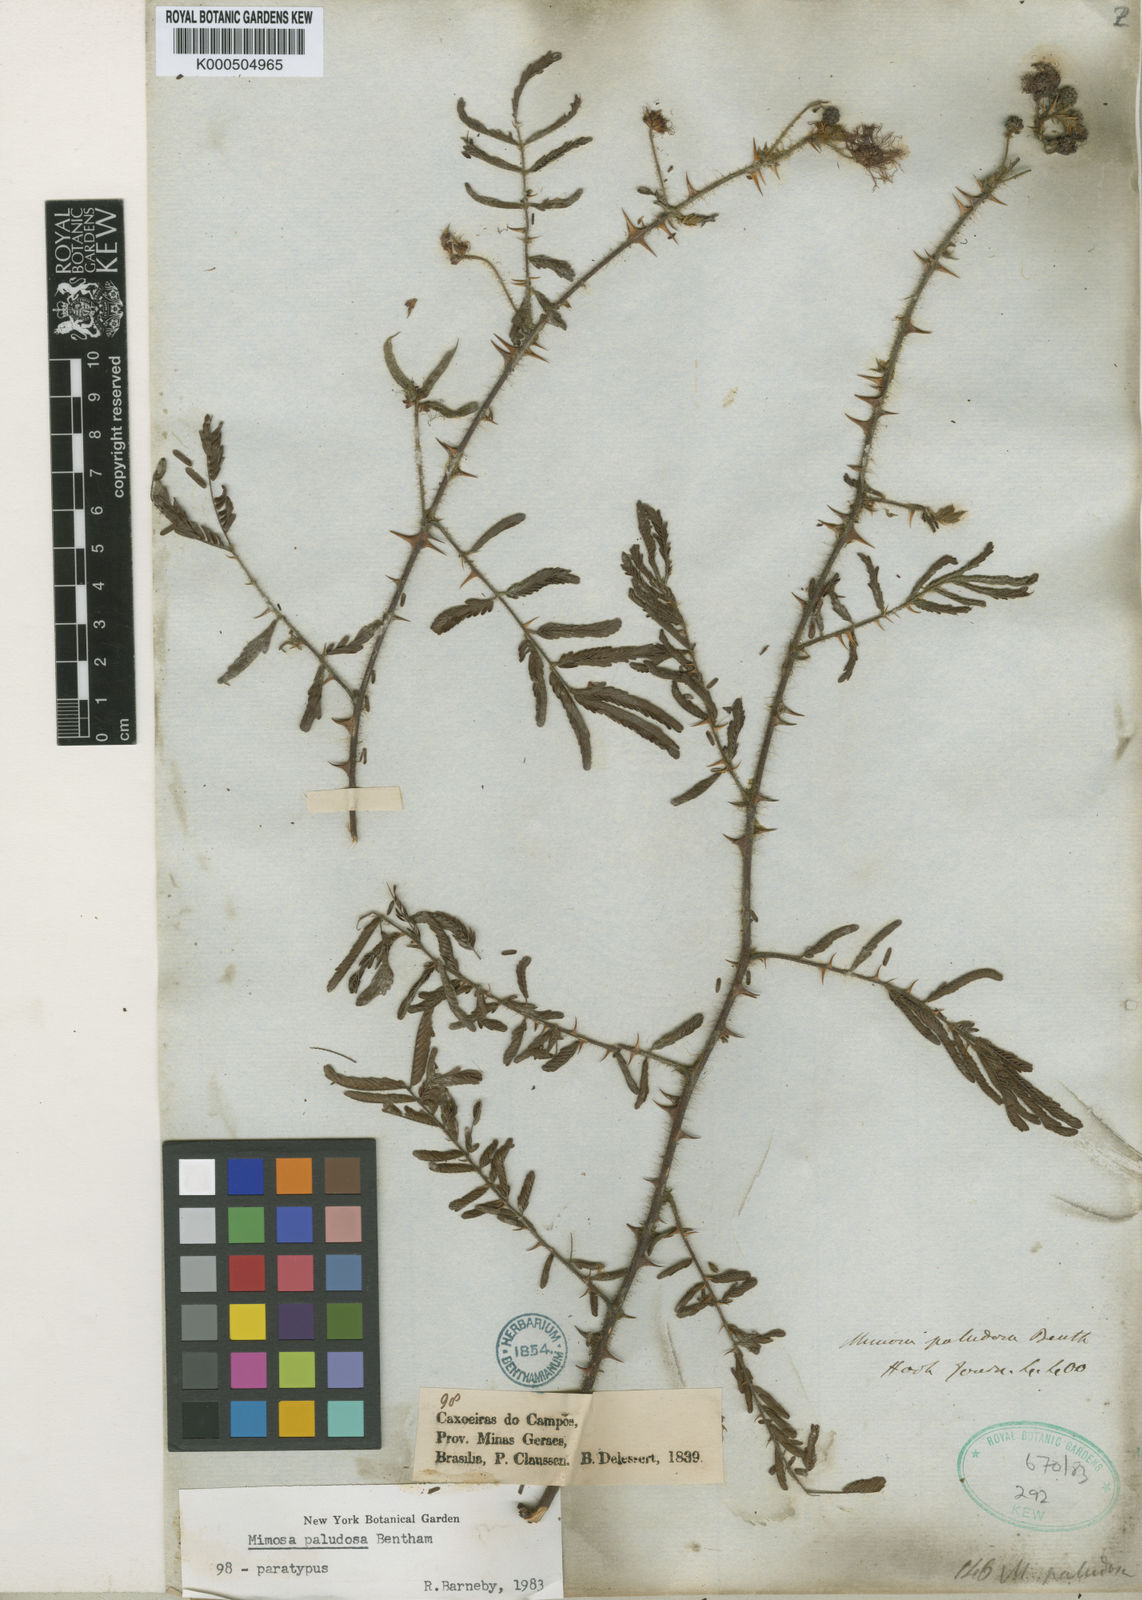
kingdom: Plantae
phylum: Tracheophyta
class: Magnoliopsida
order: Fabales
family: Fabaceae
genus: Mimosa
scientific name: Mimosa paludosa
